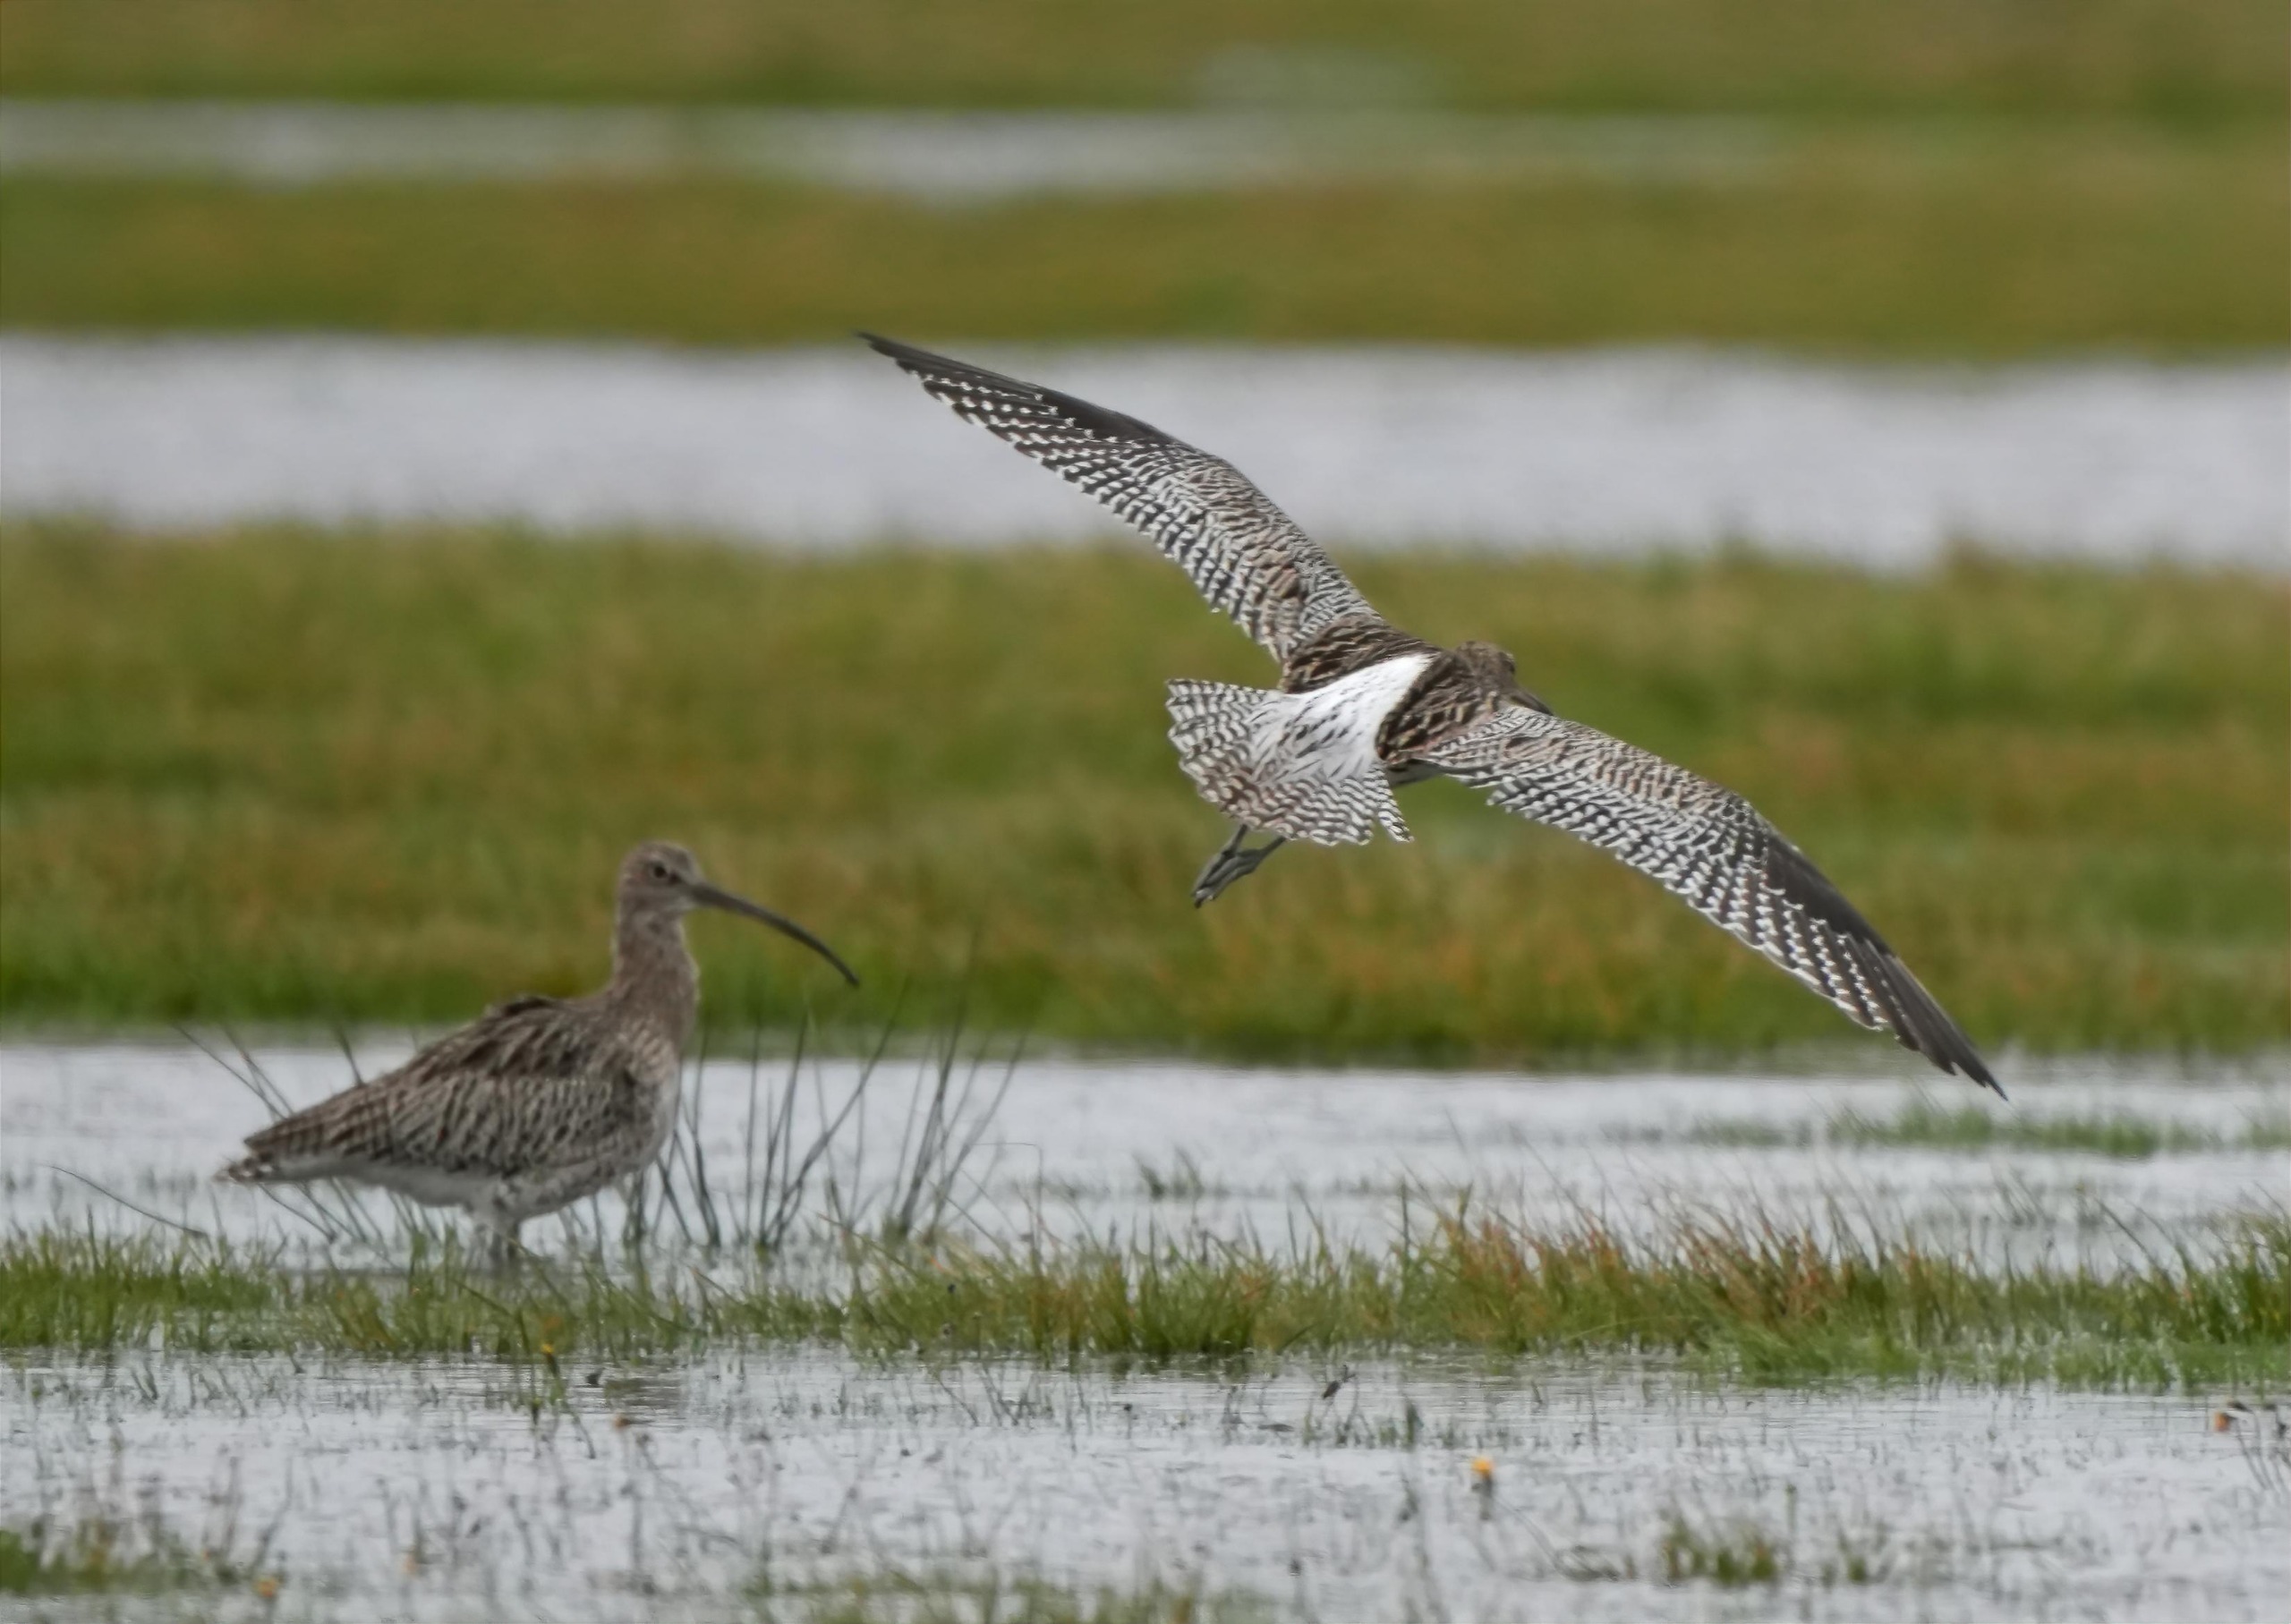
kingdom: Animalia
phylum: Chordata
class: Aves
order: Charadriiformes
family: Scolopacidae
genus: Numenius
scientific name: Numenius arquata
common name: Storspove
